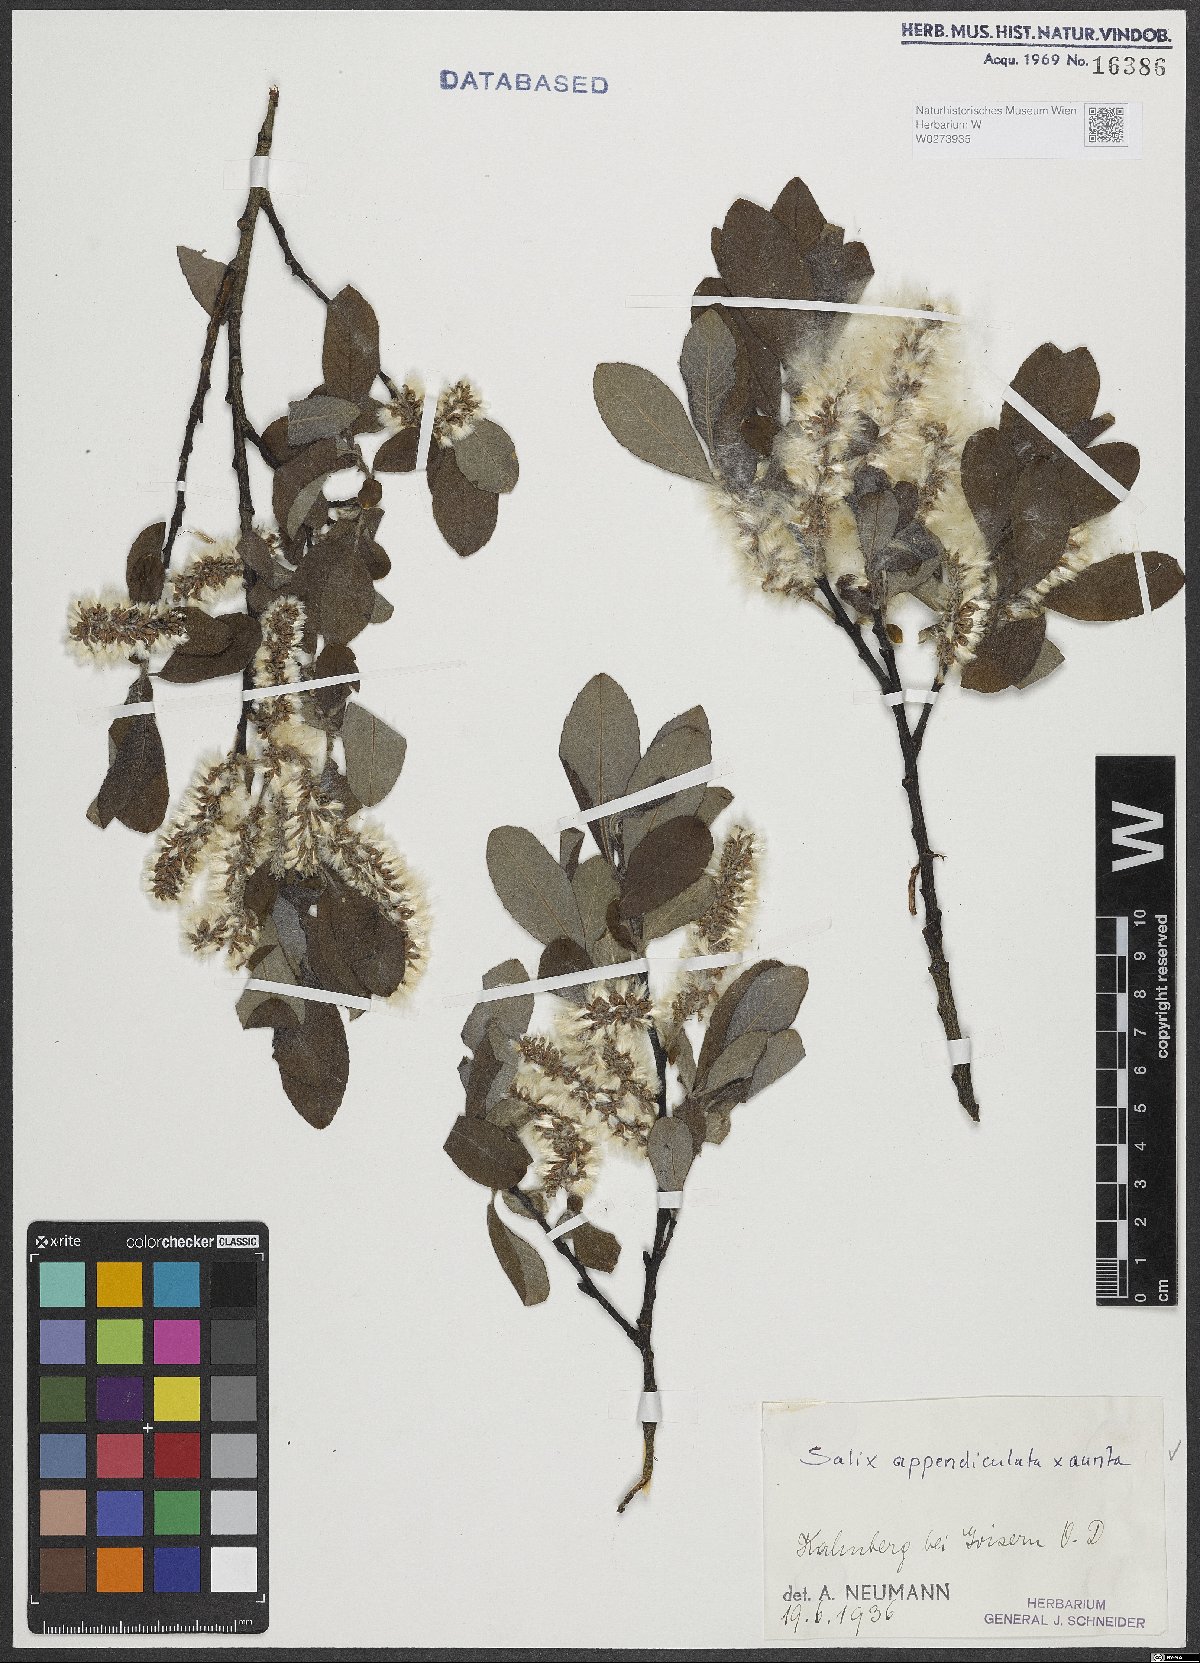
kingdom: Plantae
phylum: Tracheophyta
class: Magnoliopsida
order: Malpighiales
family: Salicaceae
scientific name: Salicaceae
